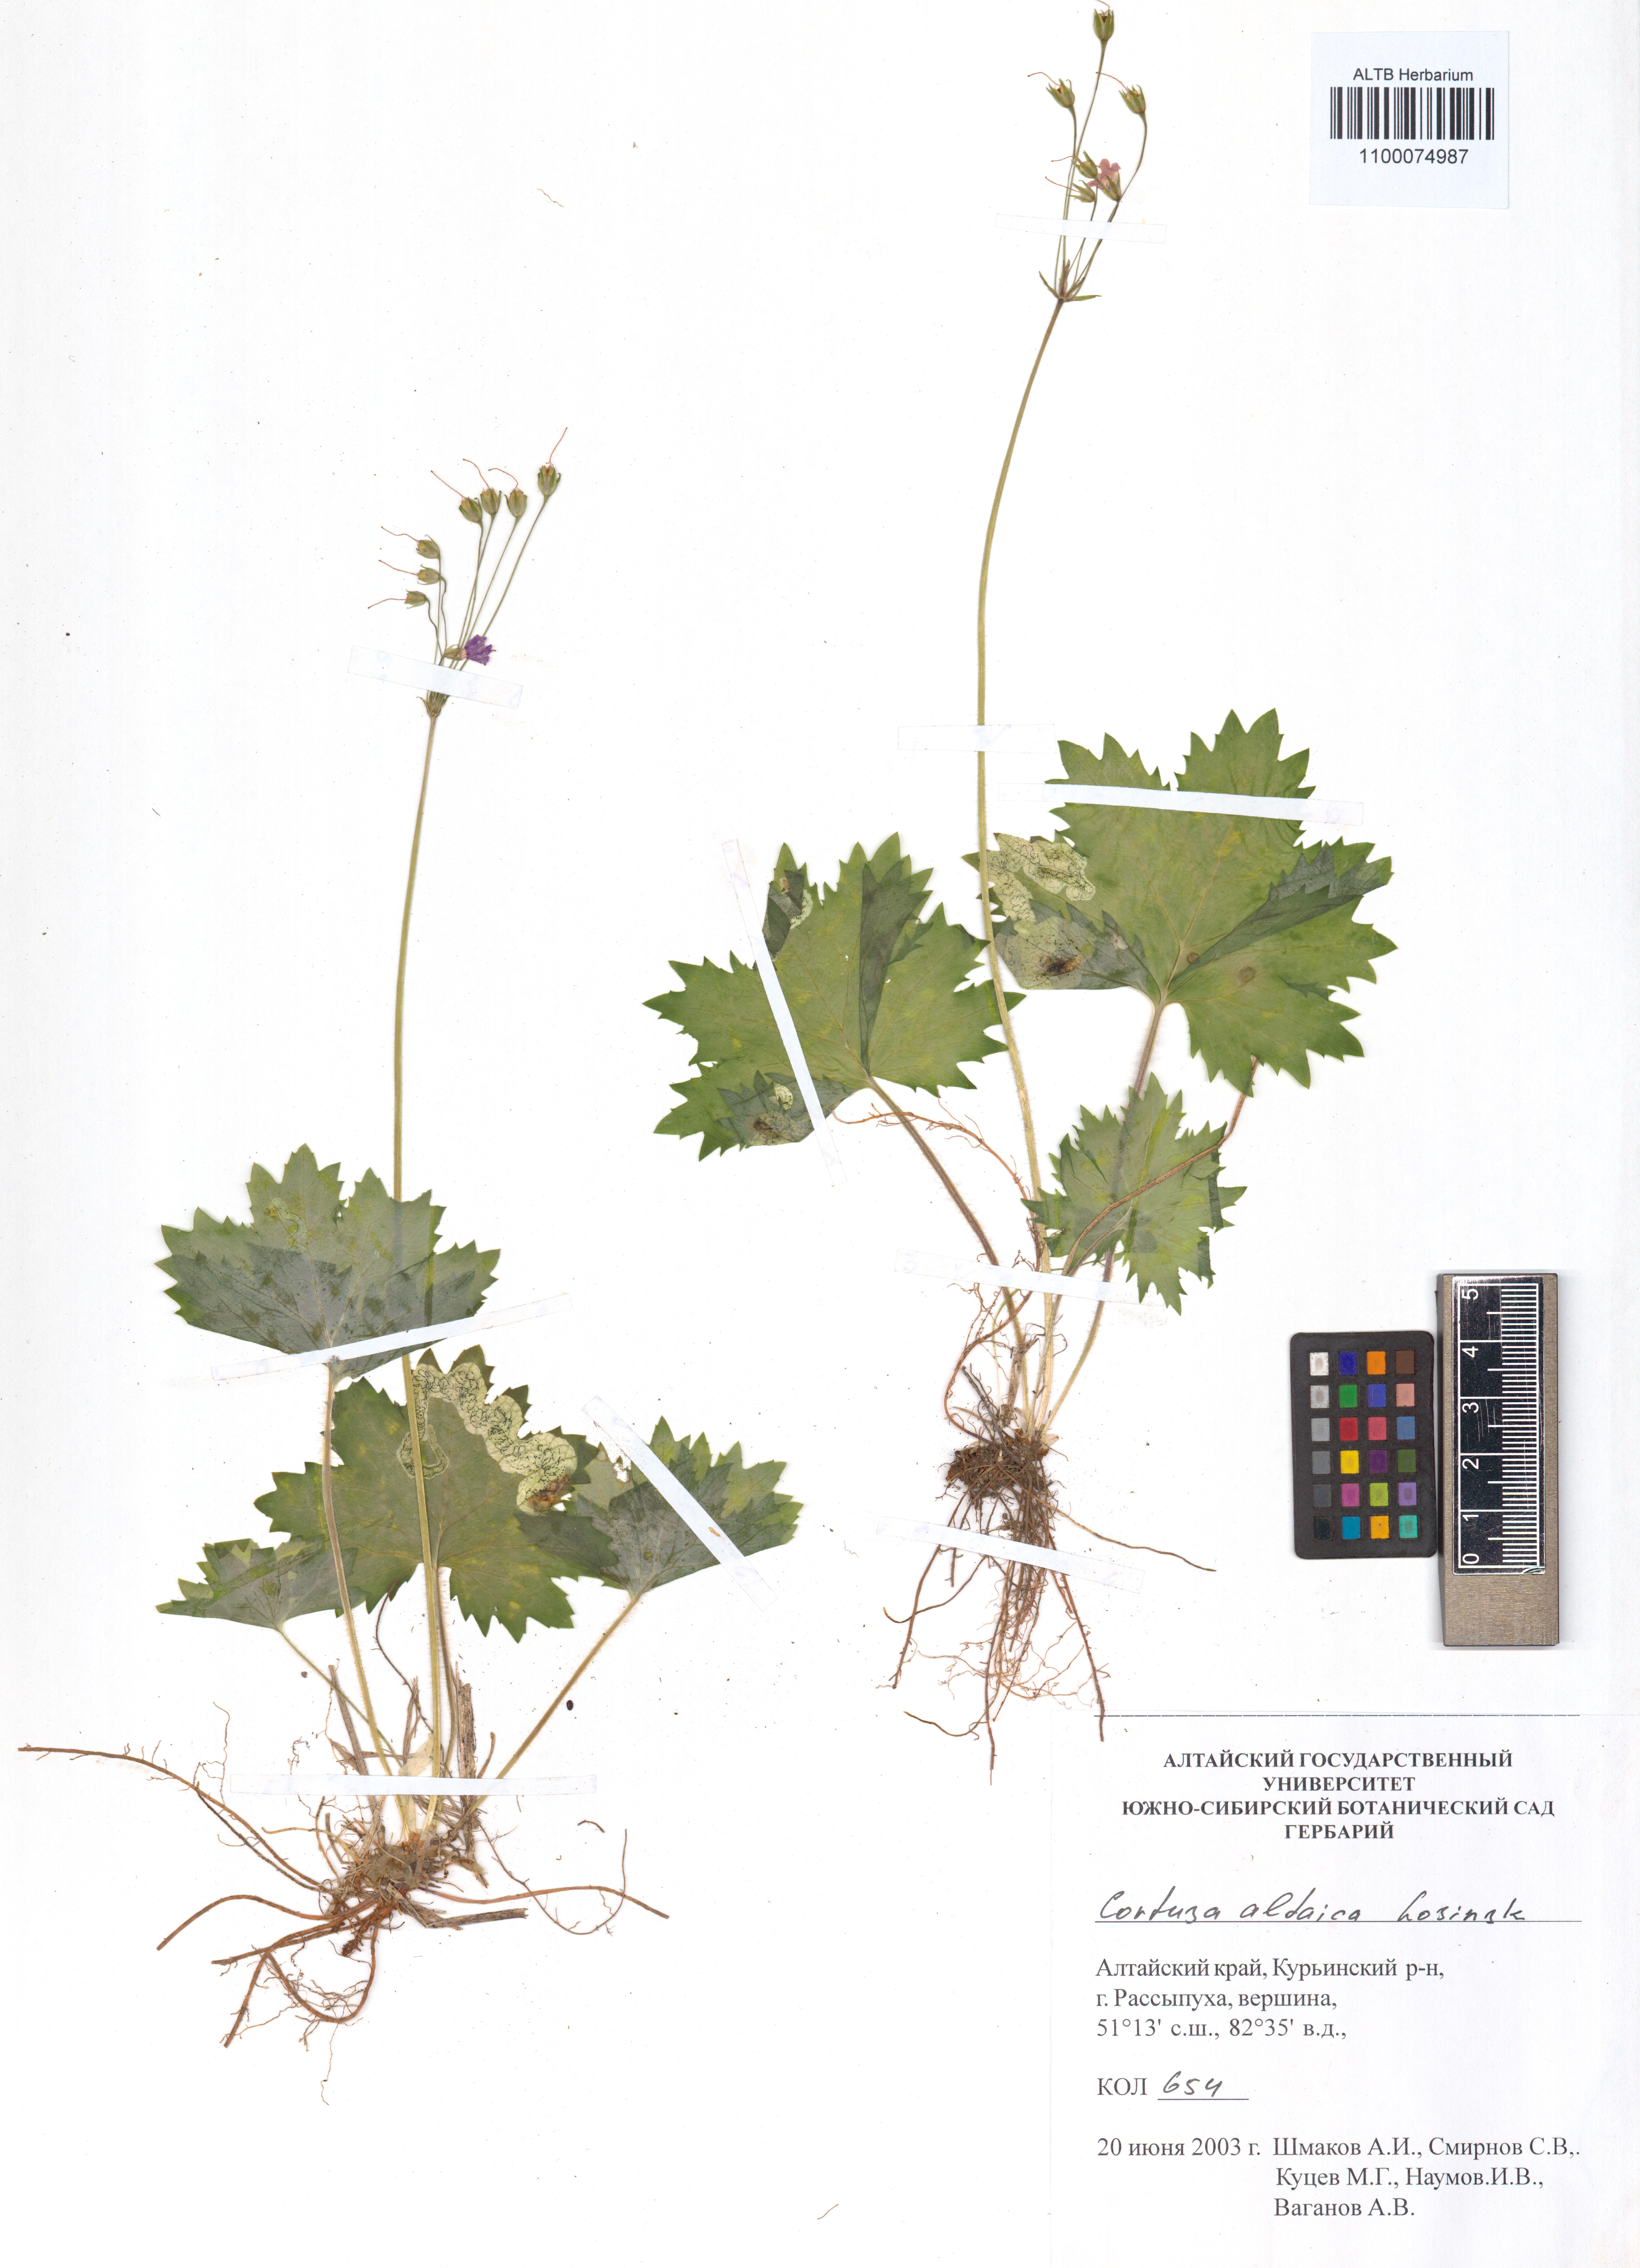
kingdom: Plantae
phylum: Tracheophyta
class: Magnoliopsida
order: Ericales
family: Primulaceae
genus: Primula
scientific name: Primula matthioli
